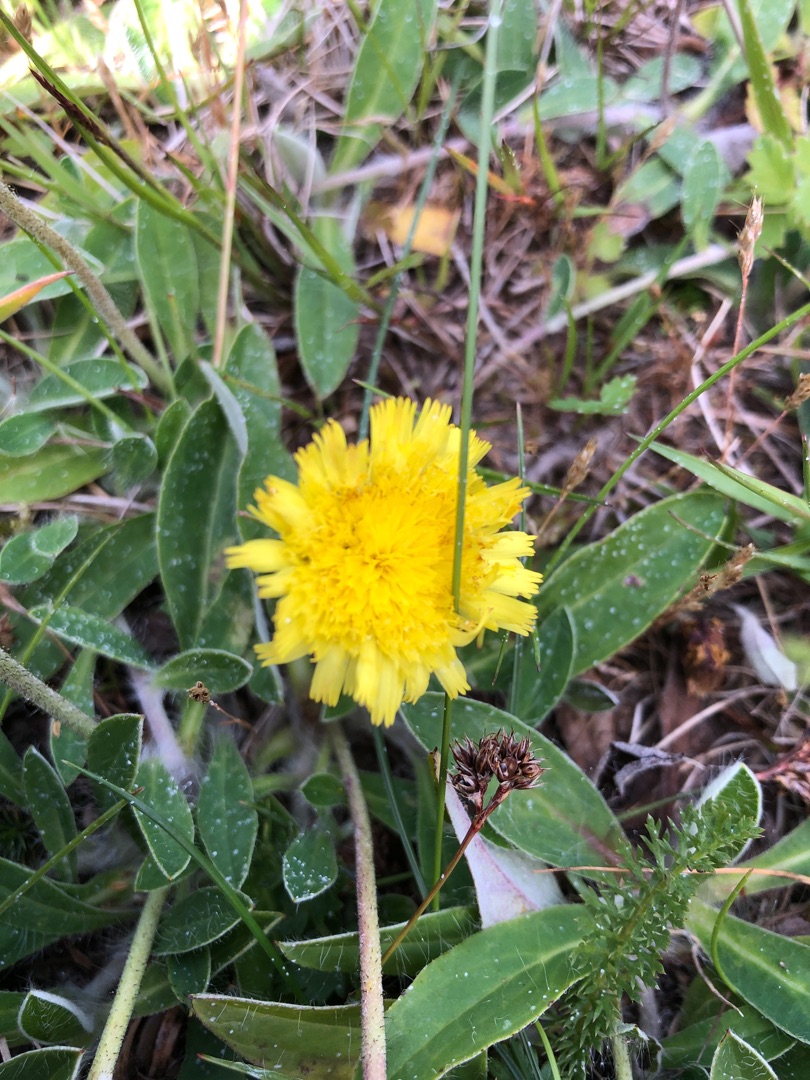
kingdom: Plantae
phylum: Tracheophyta
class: Magnoliopsida
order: Asterales
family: Asteraceae
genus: Pilosella
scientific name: Pilosella officinarum
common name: Håret høgeurt
